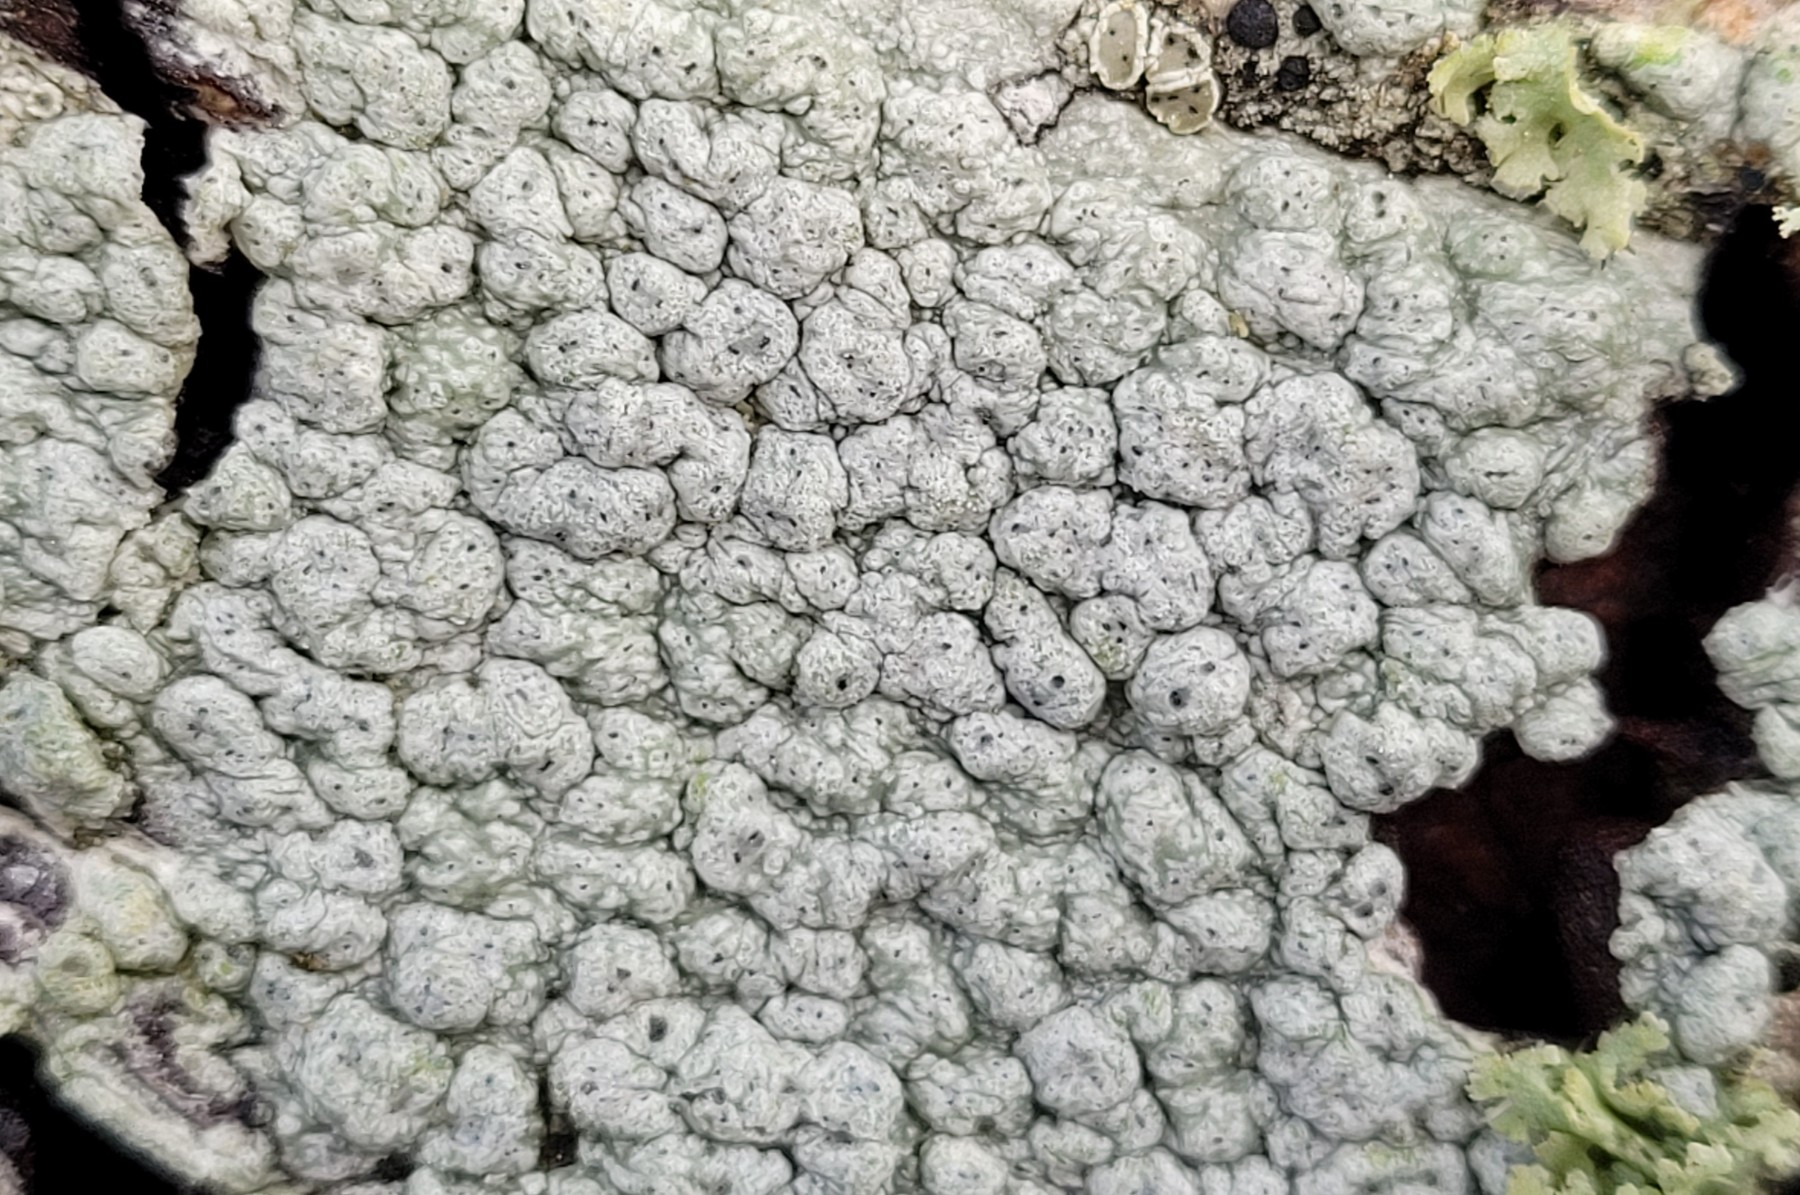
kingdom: Fungi
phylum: Ascomycota
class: Lecanoromycetes
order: Pertusariales
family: Pertusariaceae
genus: Pertusaria
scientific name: Pertusaria pertusa
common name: almindelig prikvortelav
